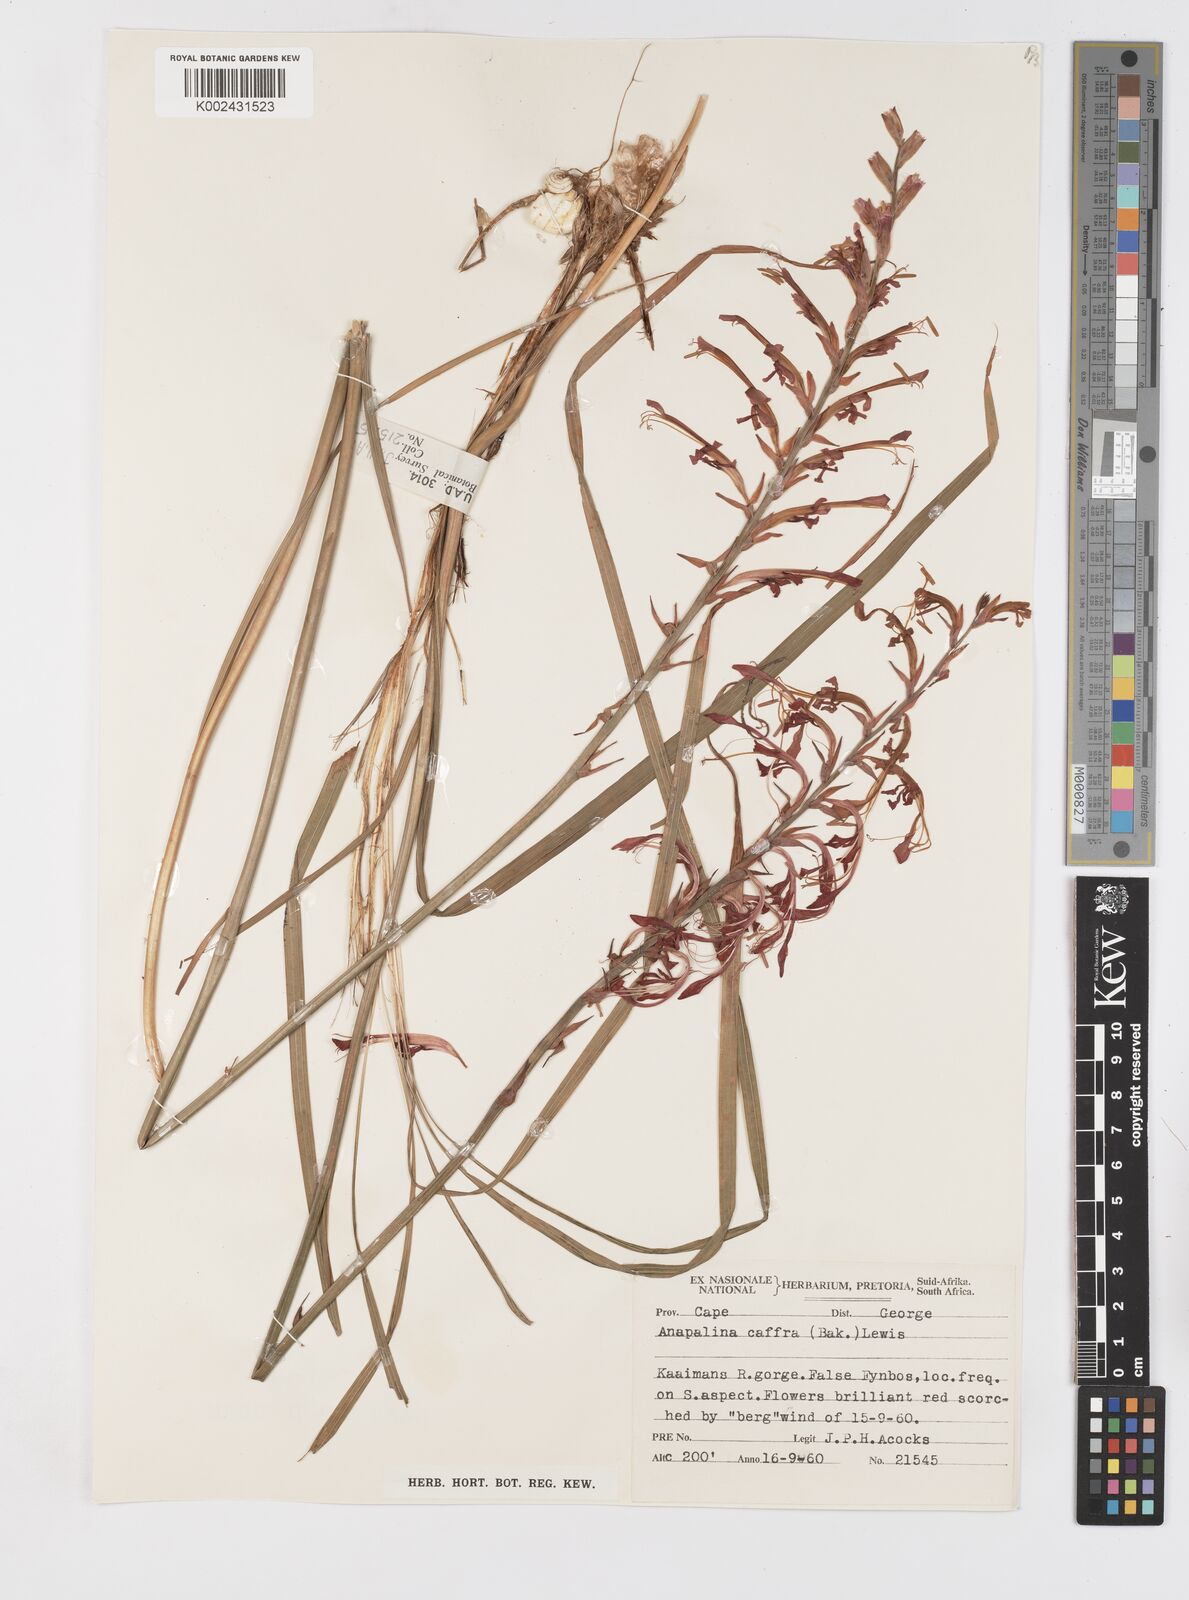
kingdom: Plantae
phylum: Tracheophyta
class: Liliopsida
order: Asparagales
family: Iridaceae
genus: Tritoniopsis
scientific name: Tritoniopsis caffra
